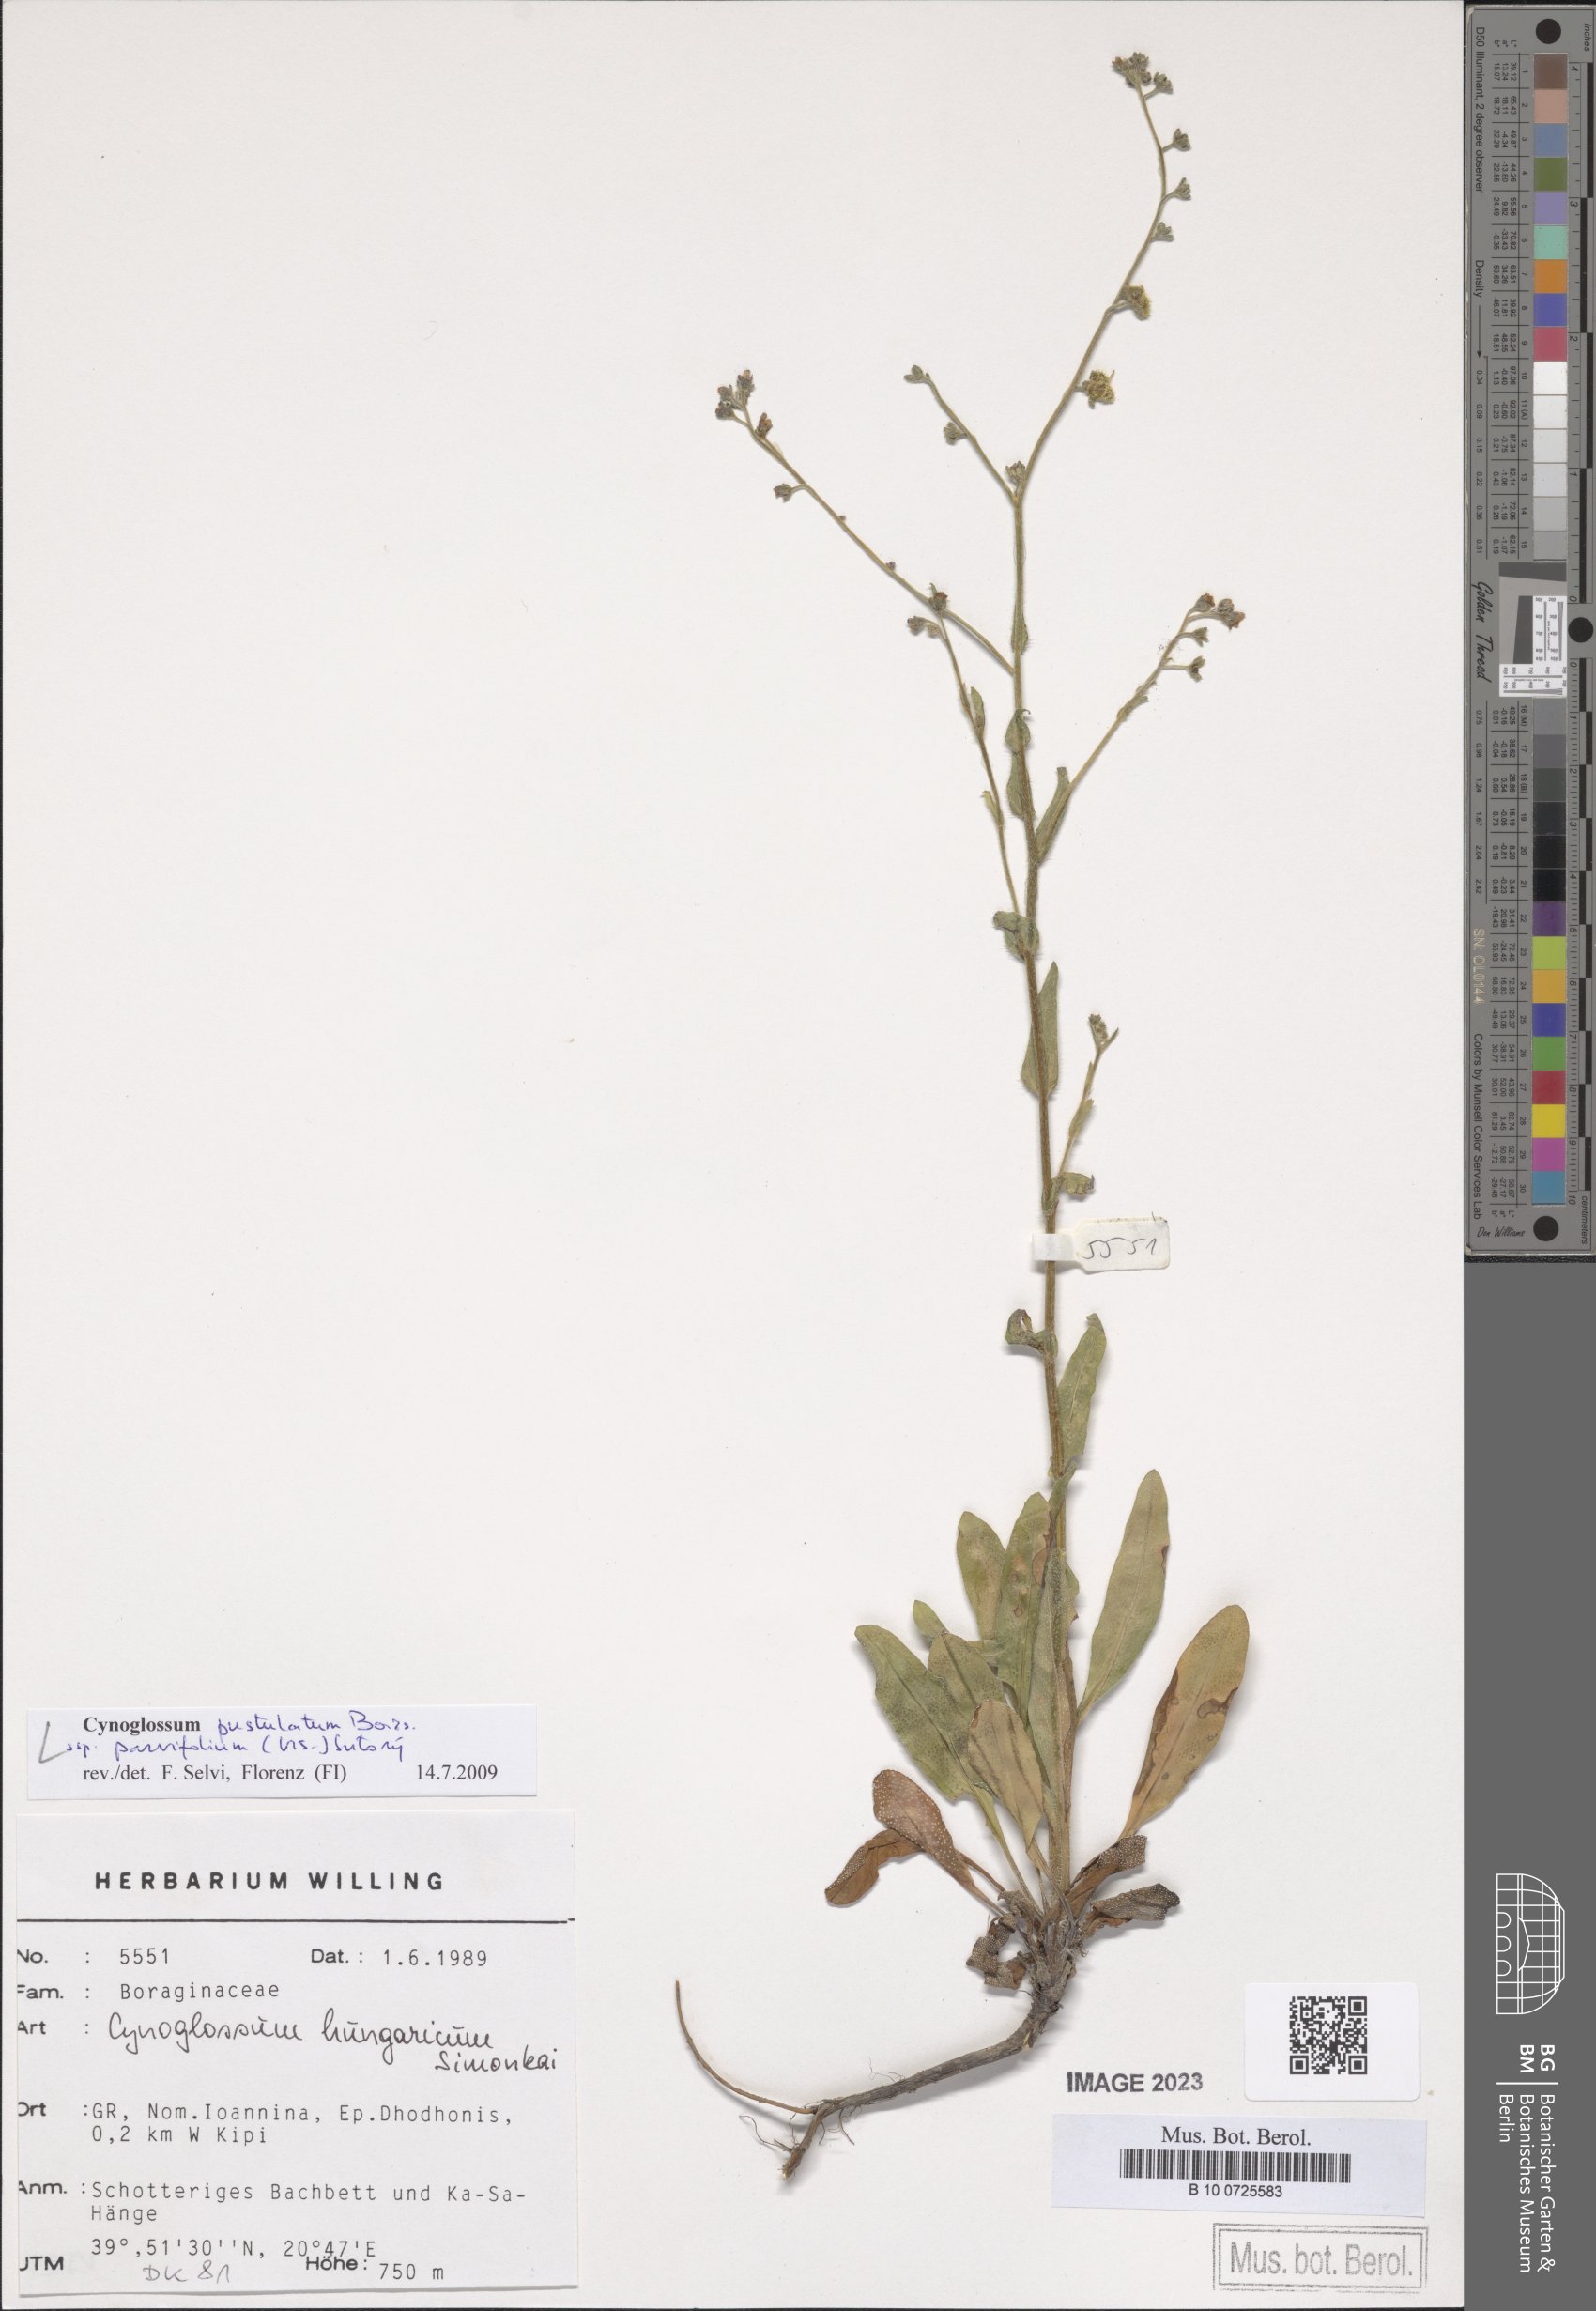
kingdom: Plantae
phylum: Tracheophyta
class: Magnoliopsida
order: Boraginales
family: Boraginaceae
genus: Cynoglossum
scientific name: Cynoglossum pustulatum
